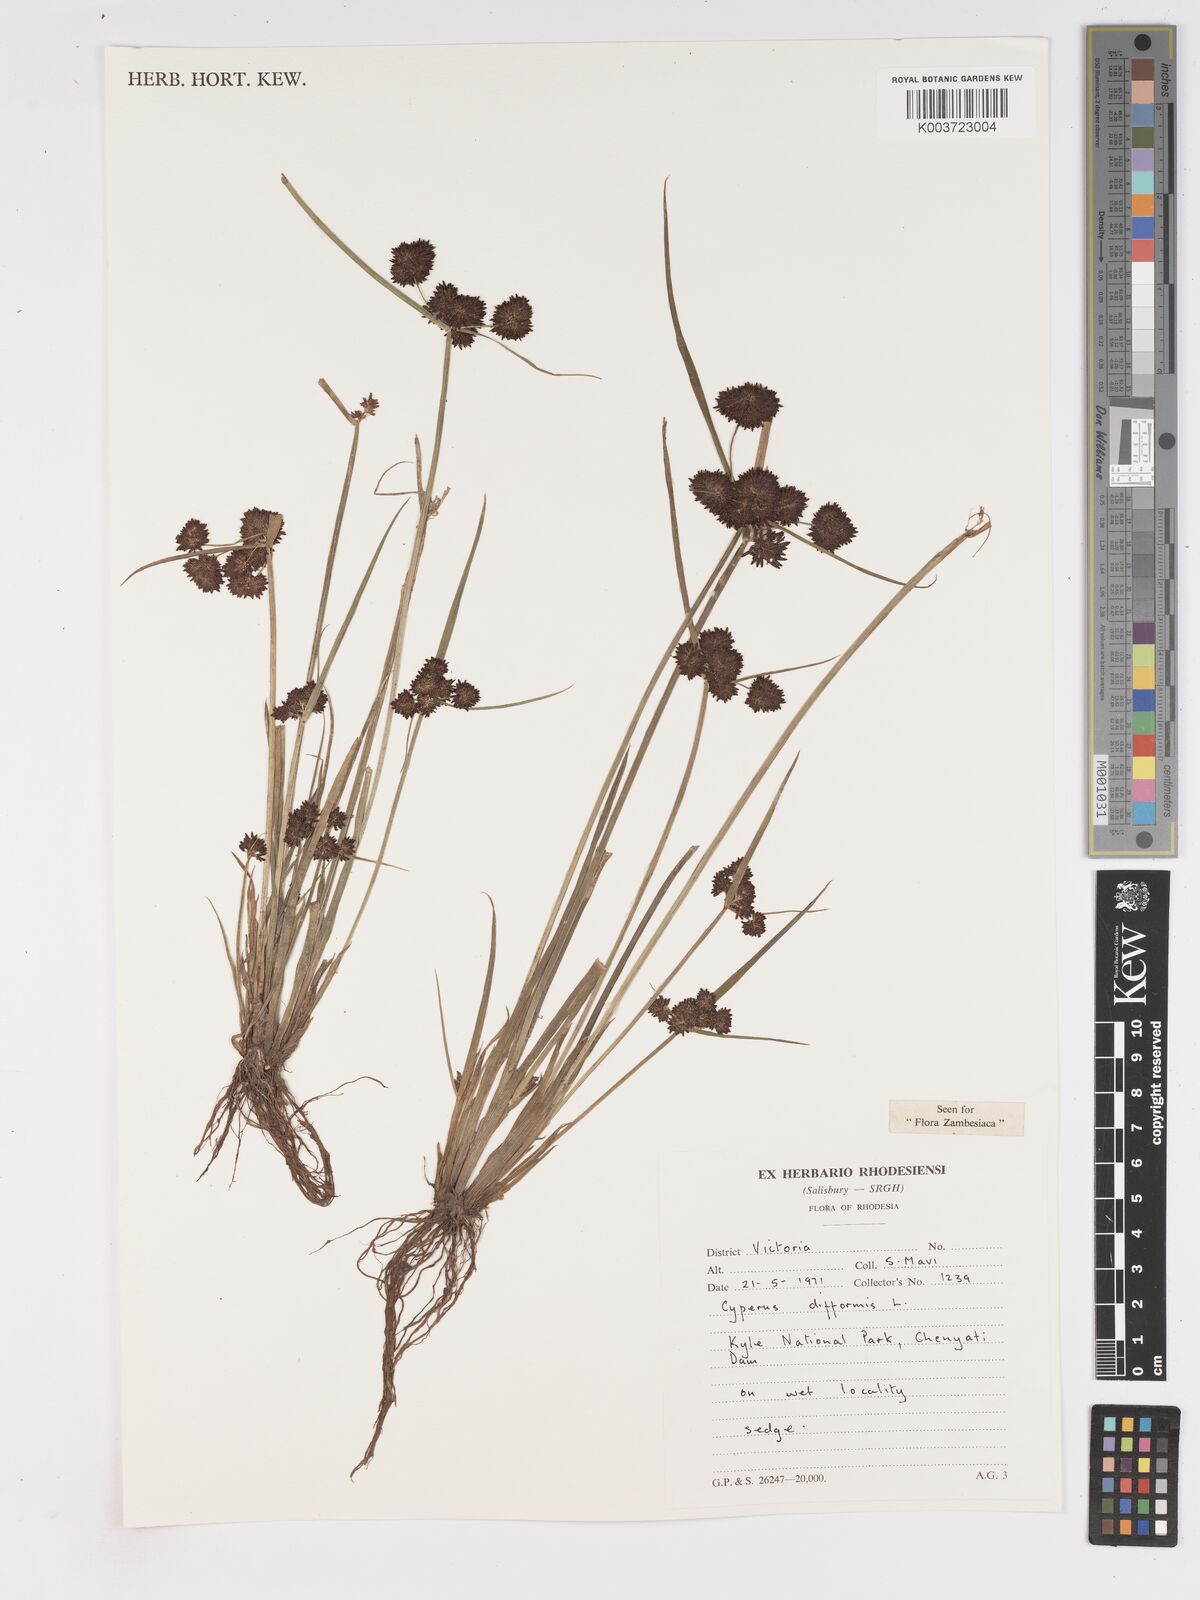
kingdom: Plantae
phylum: Tracheophyta
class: Liliopsida
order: Poales
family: Cyperaceae
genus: Cyperus
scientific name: Cyperus difformis
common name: Variable flatsedge
